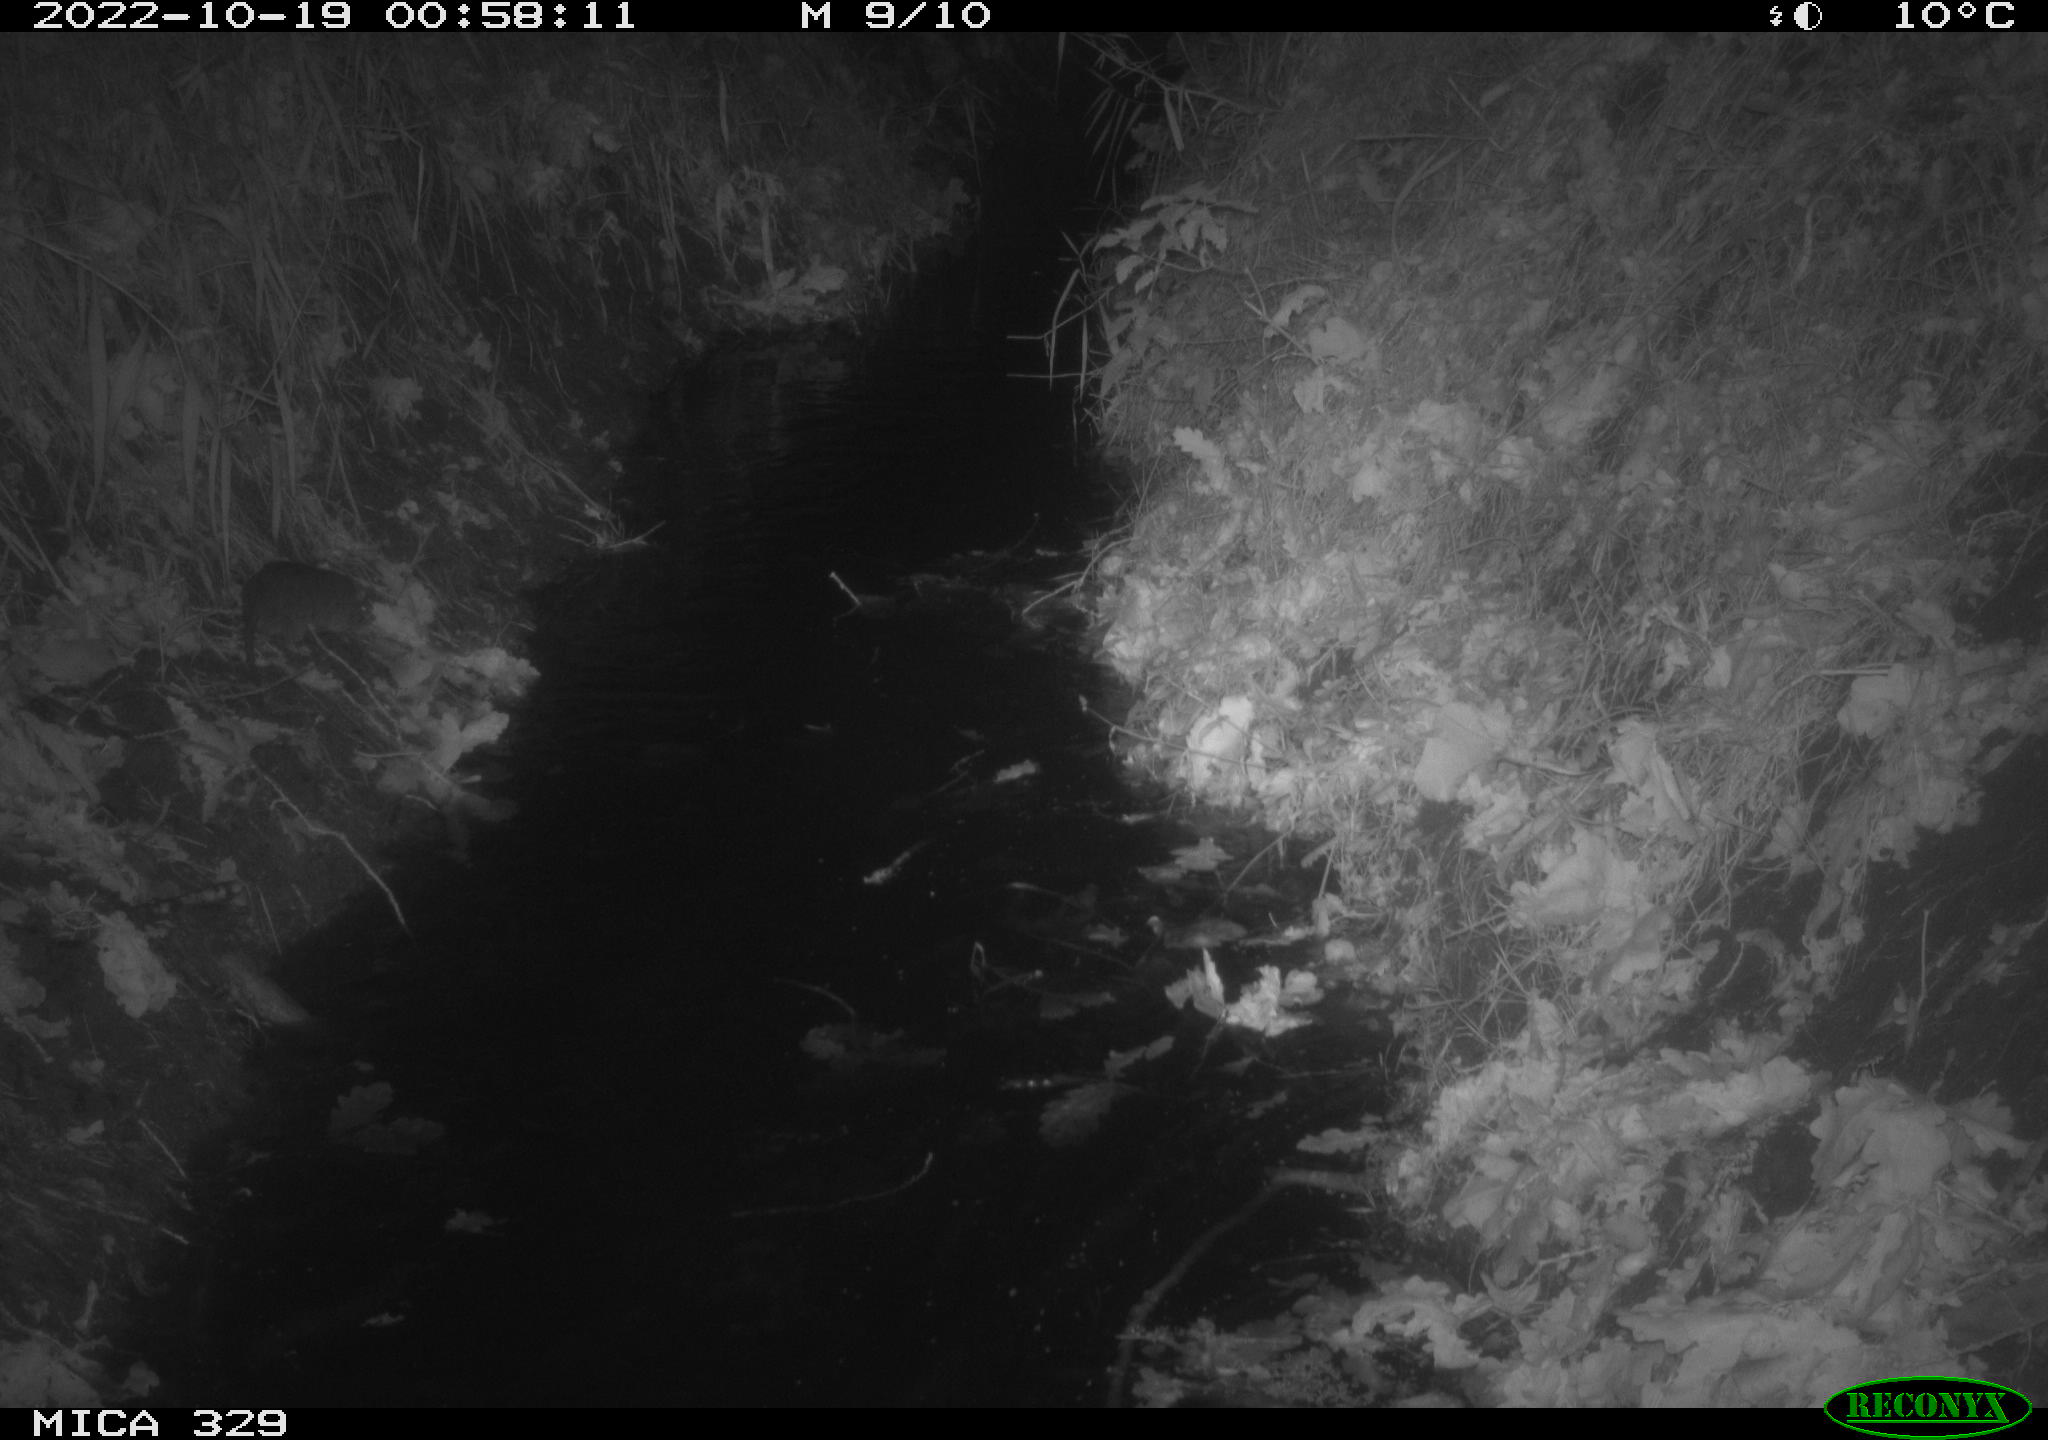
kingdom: Animalia
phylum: Chordata
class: Mammalia
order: Rodentia
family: Cricetidae
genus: Ondatra
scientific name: Ondatra zibethicus
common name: Muskrat
